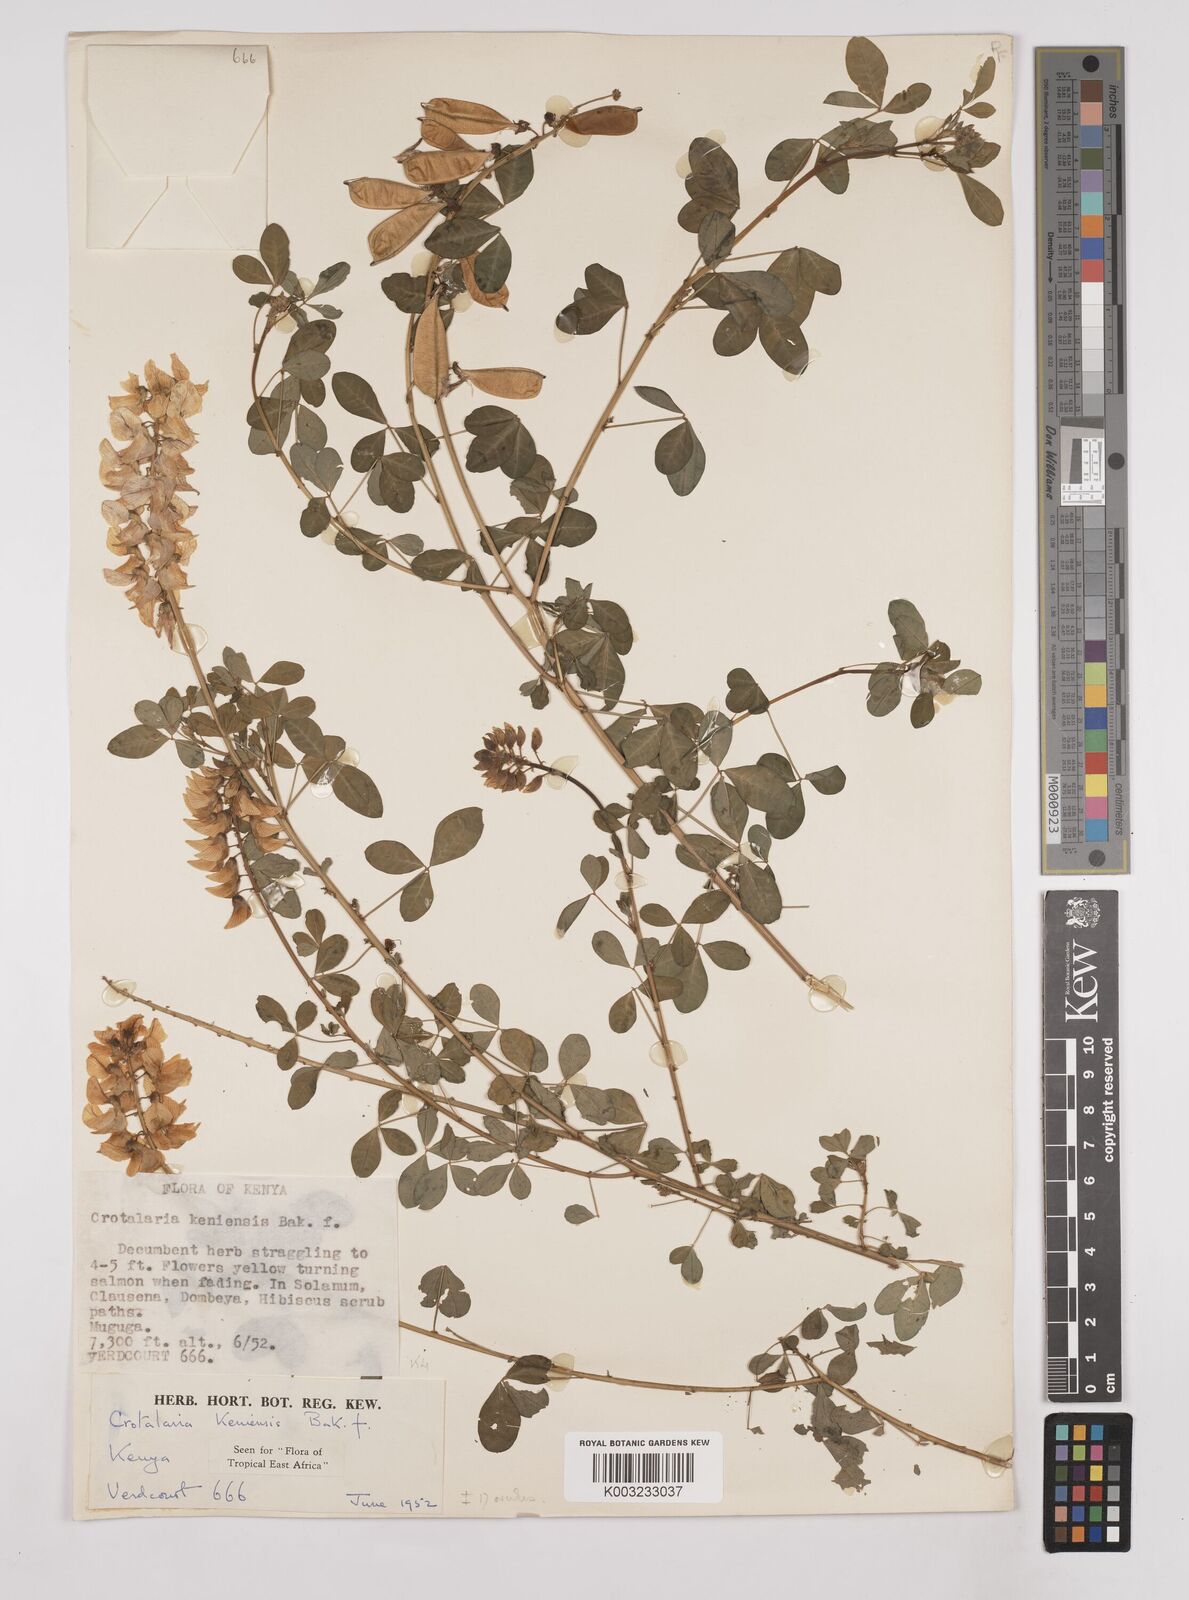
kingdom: Plantae
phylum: Tracheophyta
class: Magnoliopsida
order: Fabales
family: Fabaceae
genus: Crotalaria
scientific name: Crotalaria keniensis
